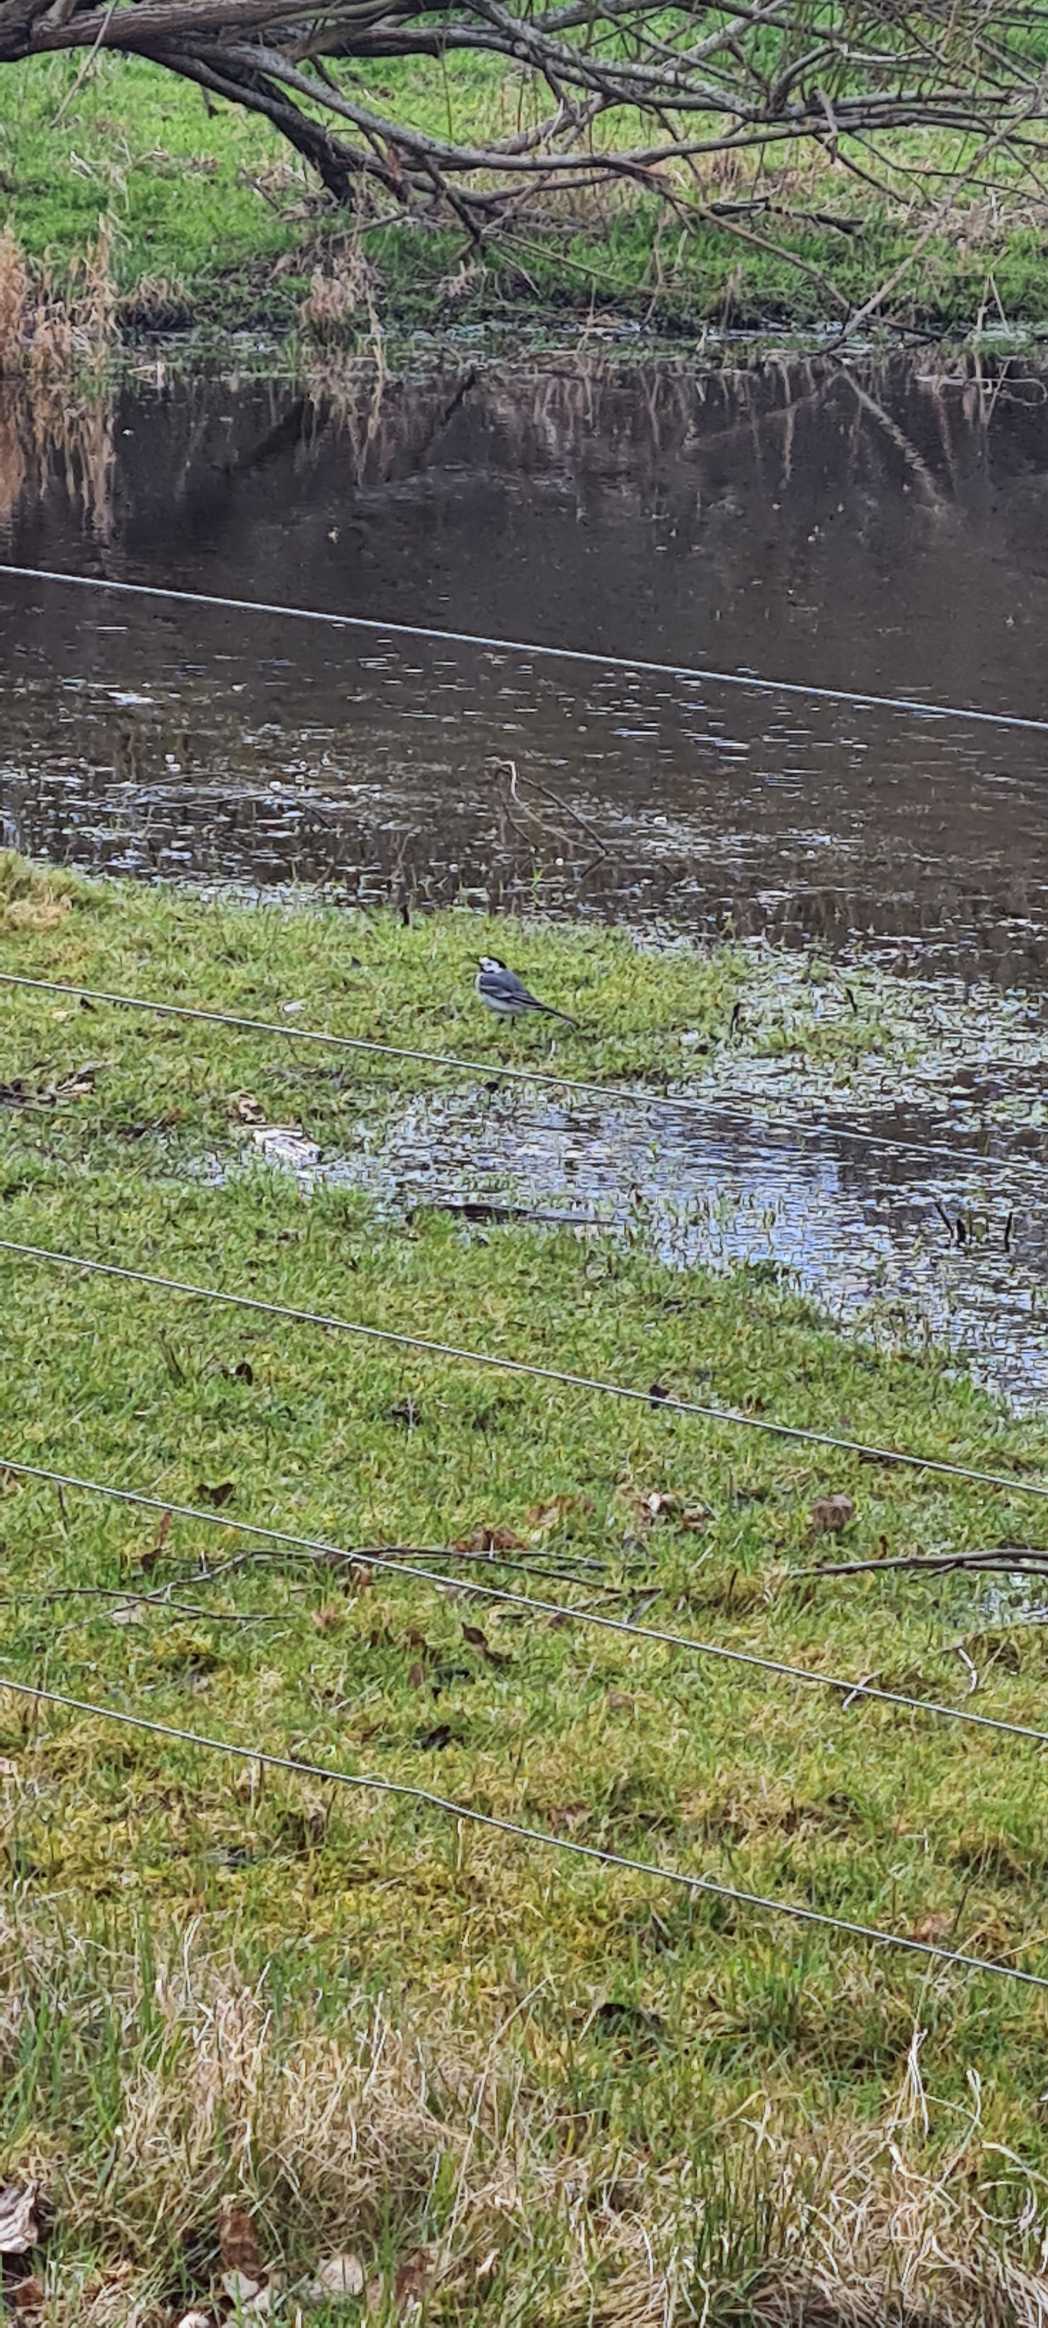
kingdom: Animalia
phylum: Chordata
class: Aves
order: Passeriformes
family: Motacillidae
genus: Motacilla
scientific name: Motacilla alba
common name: Hvid vipstjert
